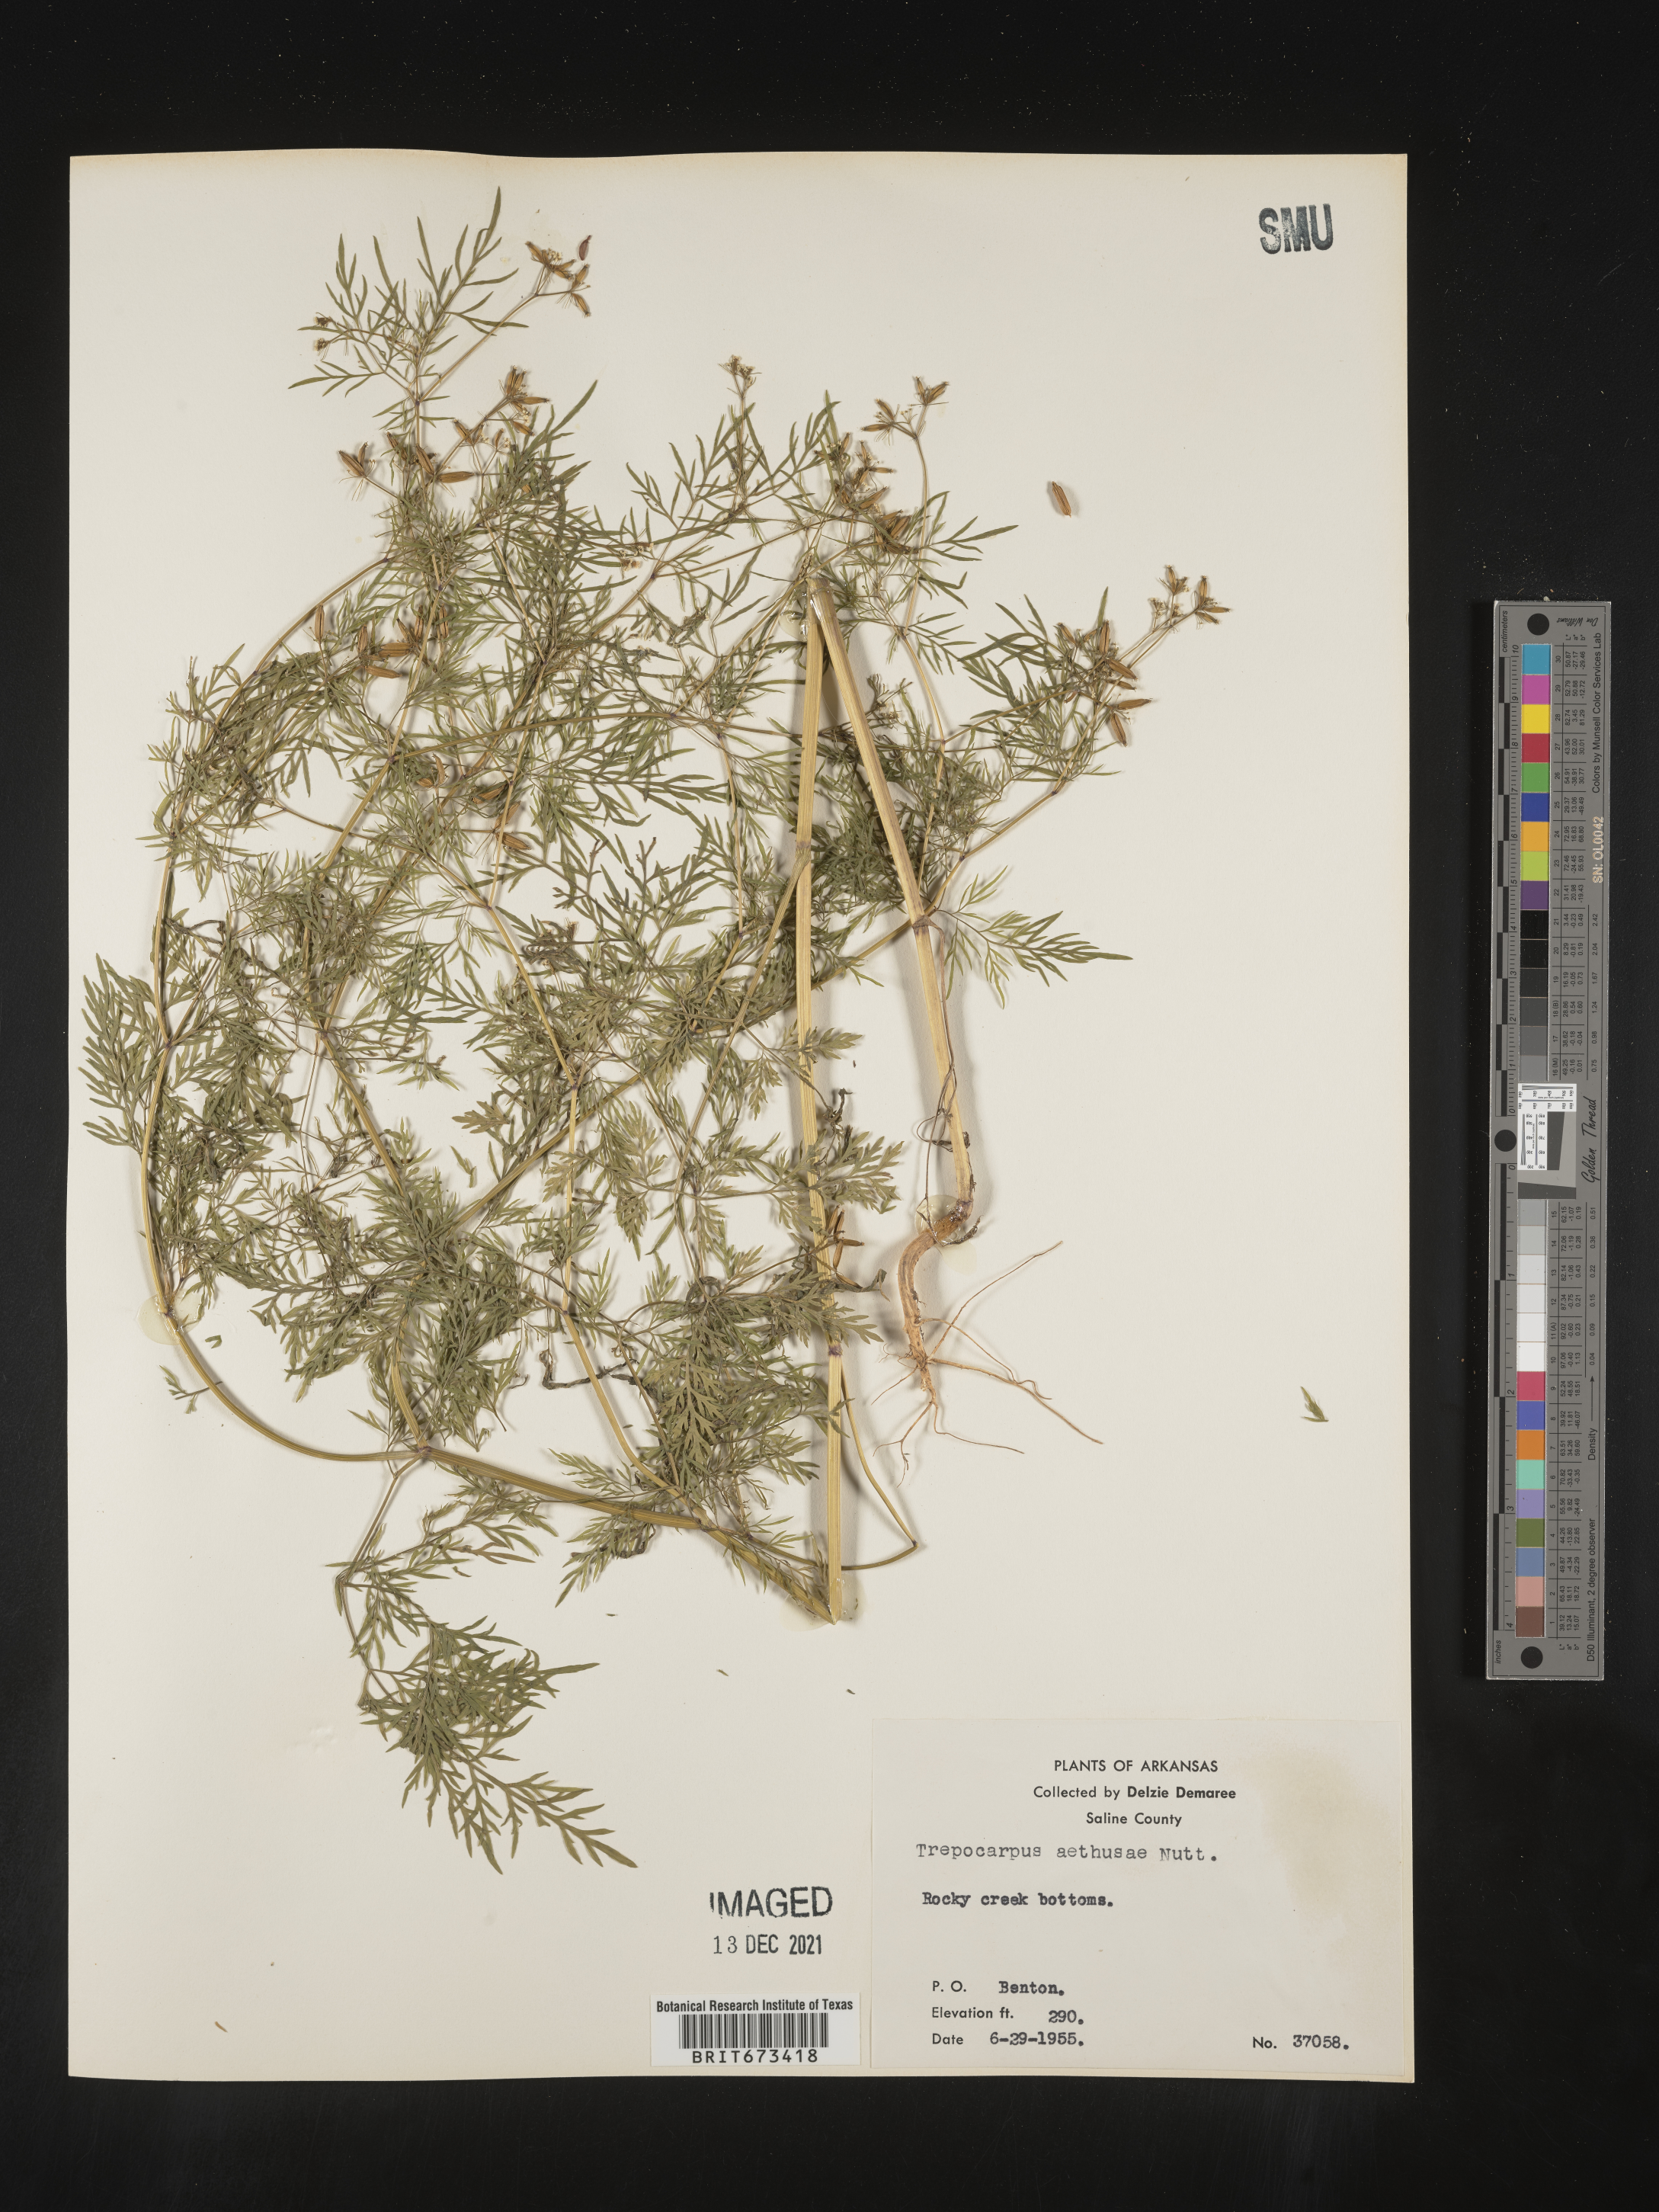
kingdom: Plantae
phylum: Tracheophyta
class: Magnoliopsida
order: Apiales
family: Apiaceae
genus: Trepocarpus
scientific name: Trepocarpus aethusae
